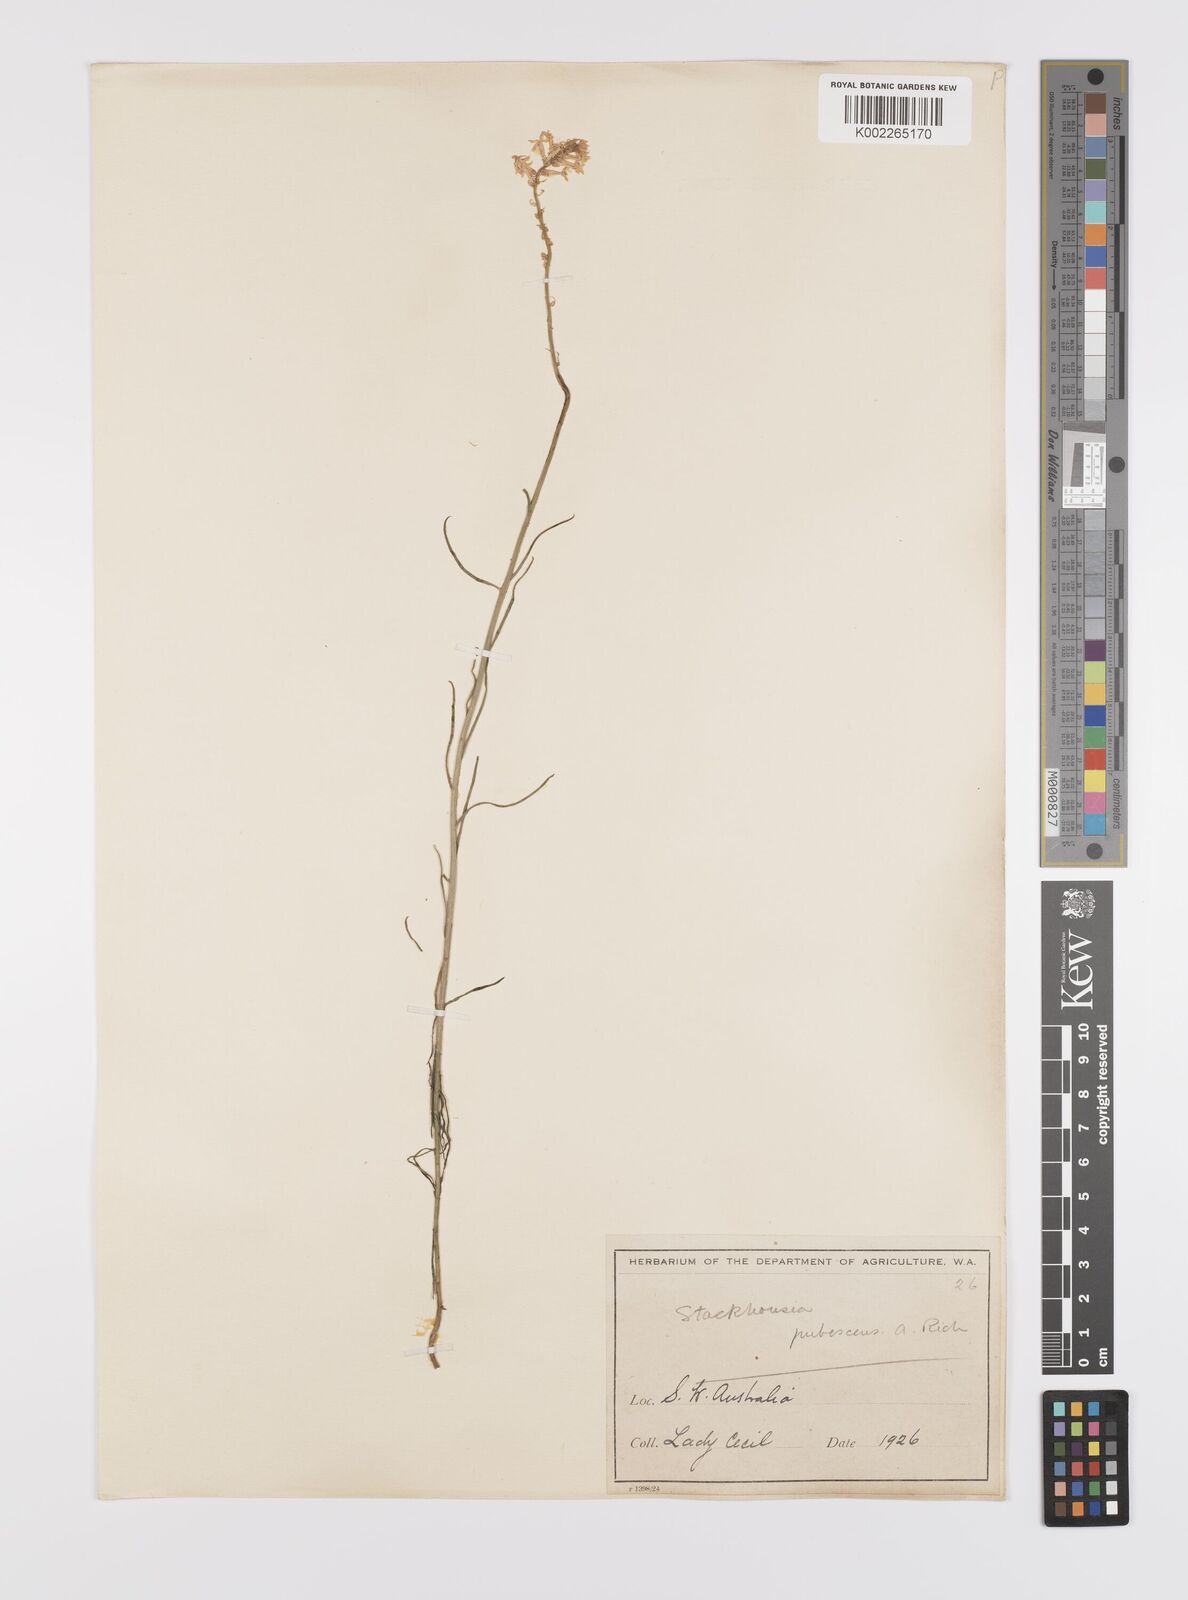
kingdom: Plantae
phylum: Tracheophyta
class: Magnoliopsida
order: Celastrales
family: Celastraceae
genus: Stackhousia
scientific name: Stackhousia monogyna
